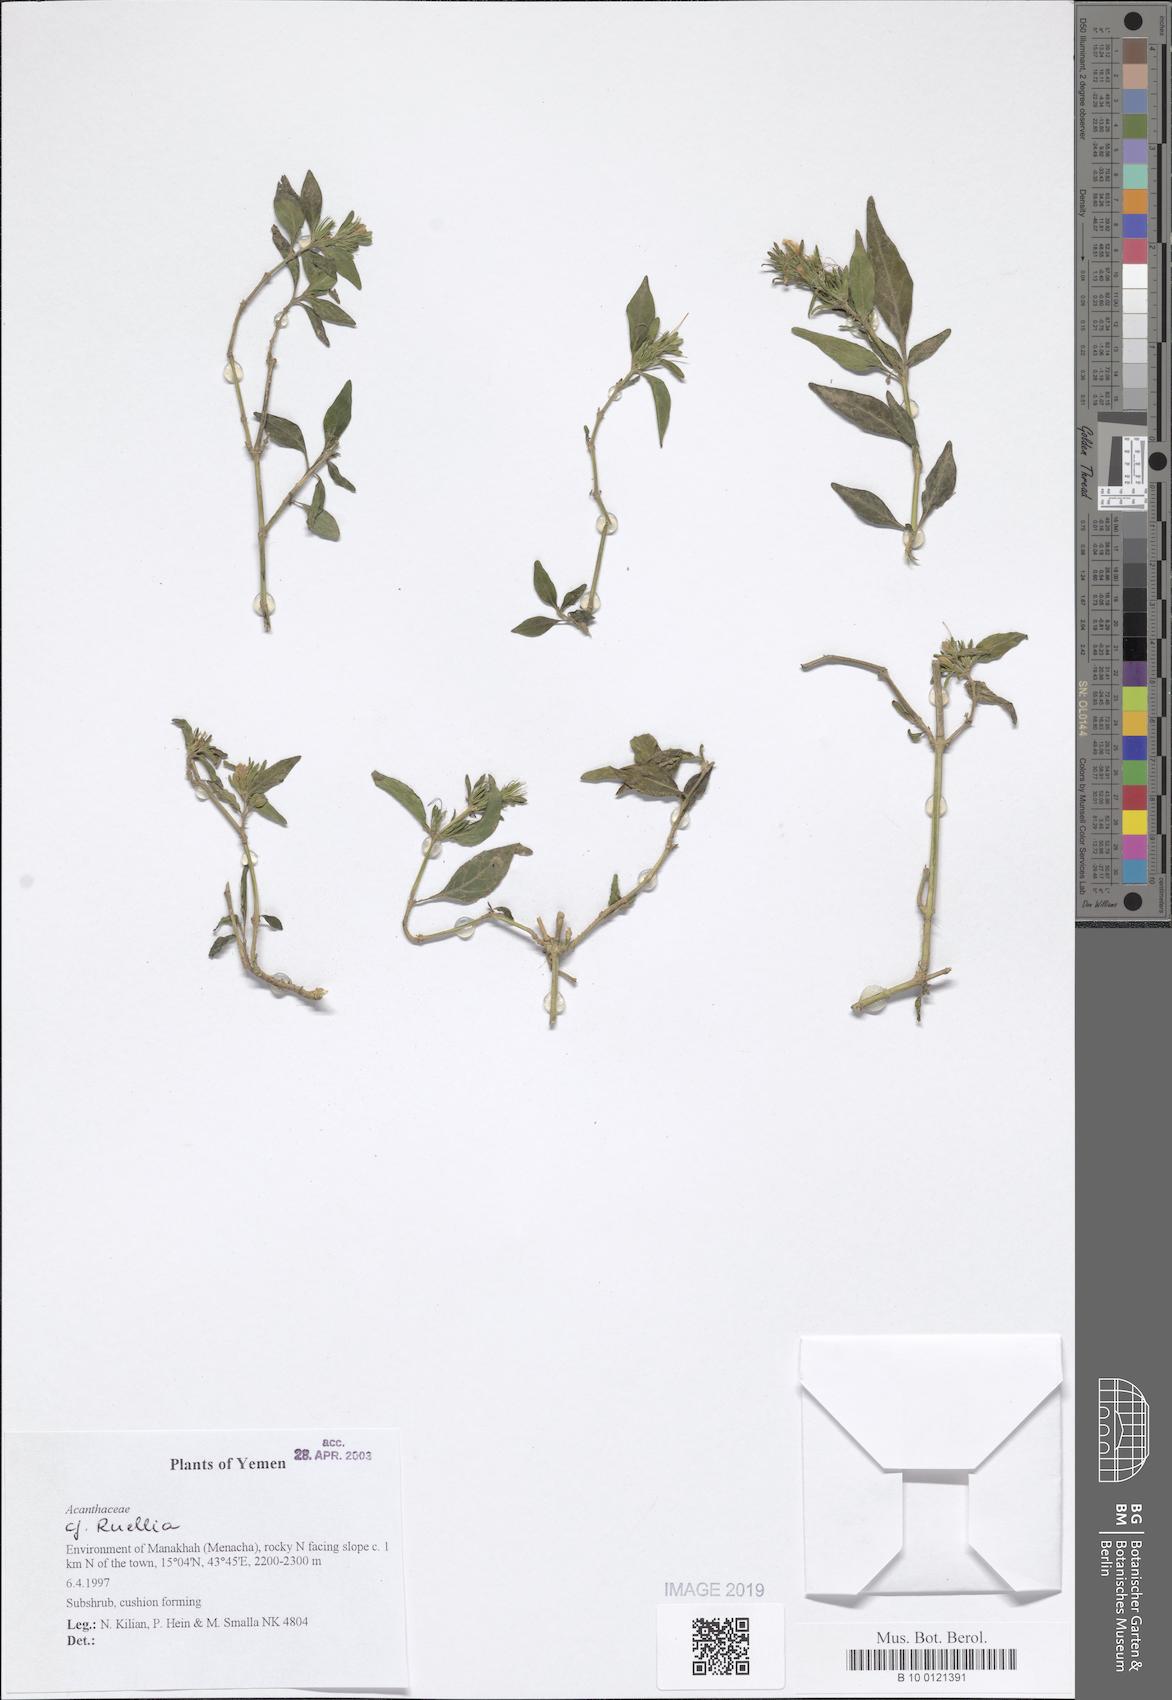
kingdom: Plantae
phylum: Tracheophyta
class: Magnoliopsida
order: Lamiales
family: Acanthaceae
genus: Ruellia
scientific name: Ruellia
